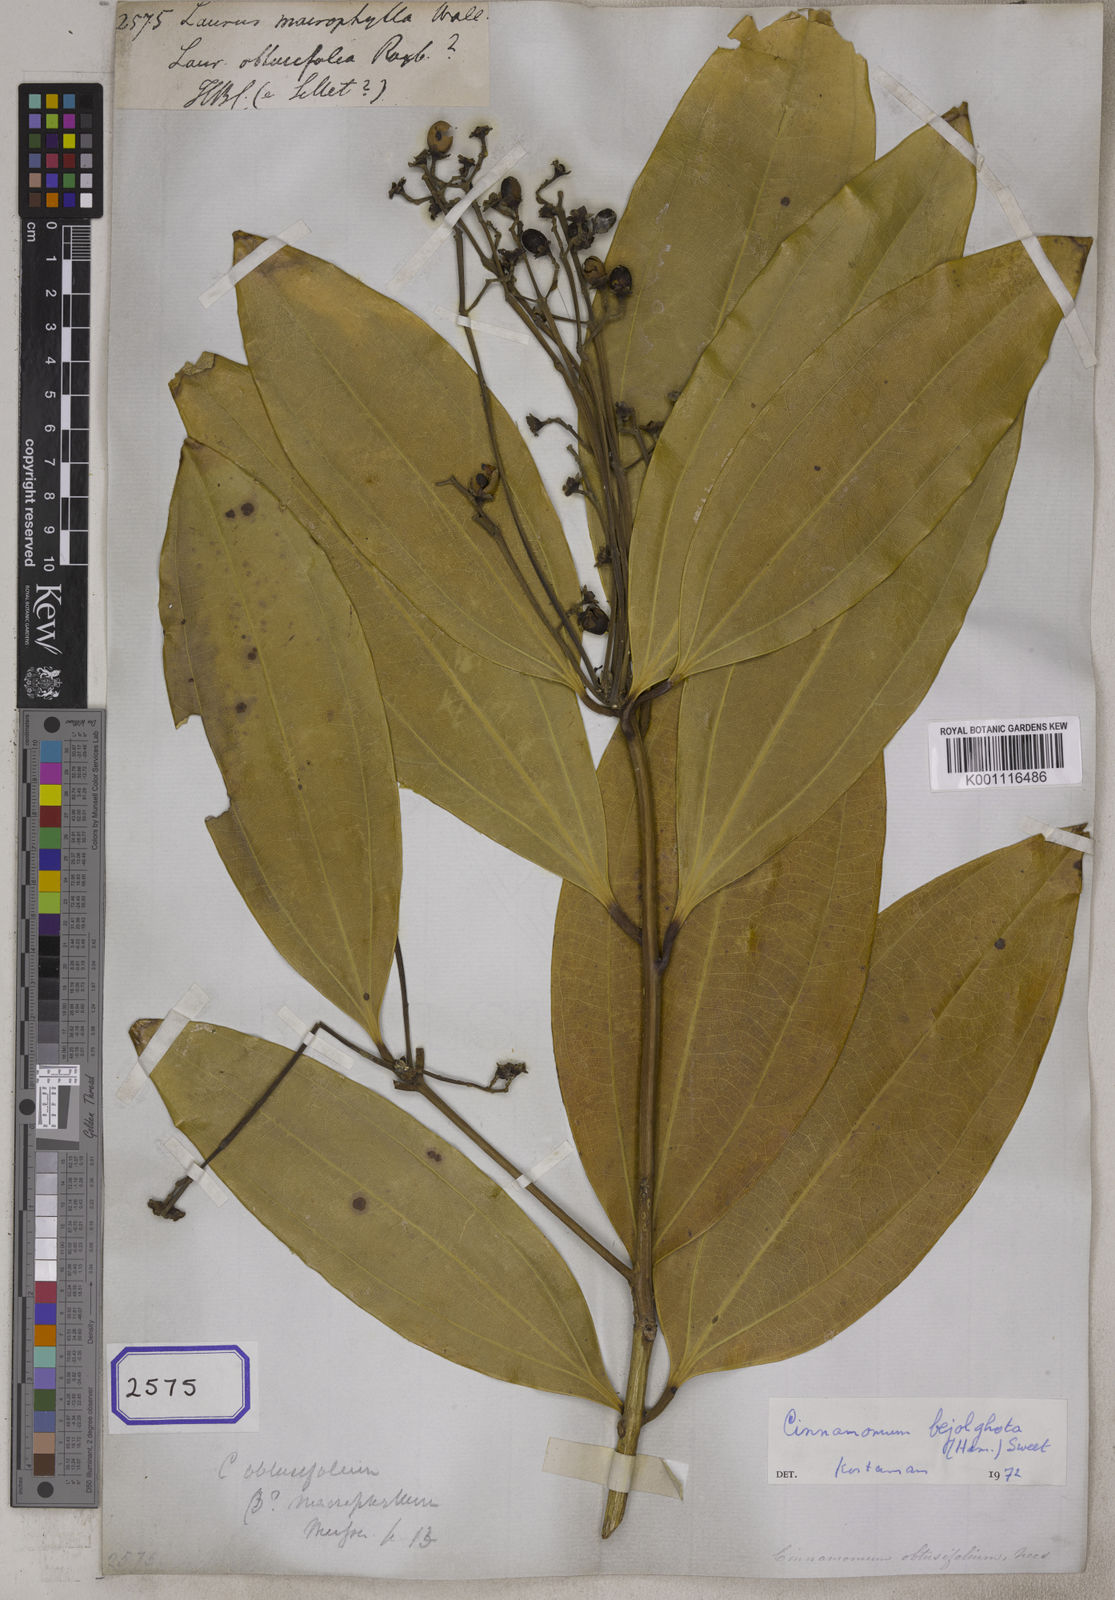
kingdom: Plantae
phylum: Tracheophyta
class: Magnoliopsida
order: Laurales
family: Lauraceae
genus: Cinnamomum
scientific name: Cinnamomum bejolghota
